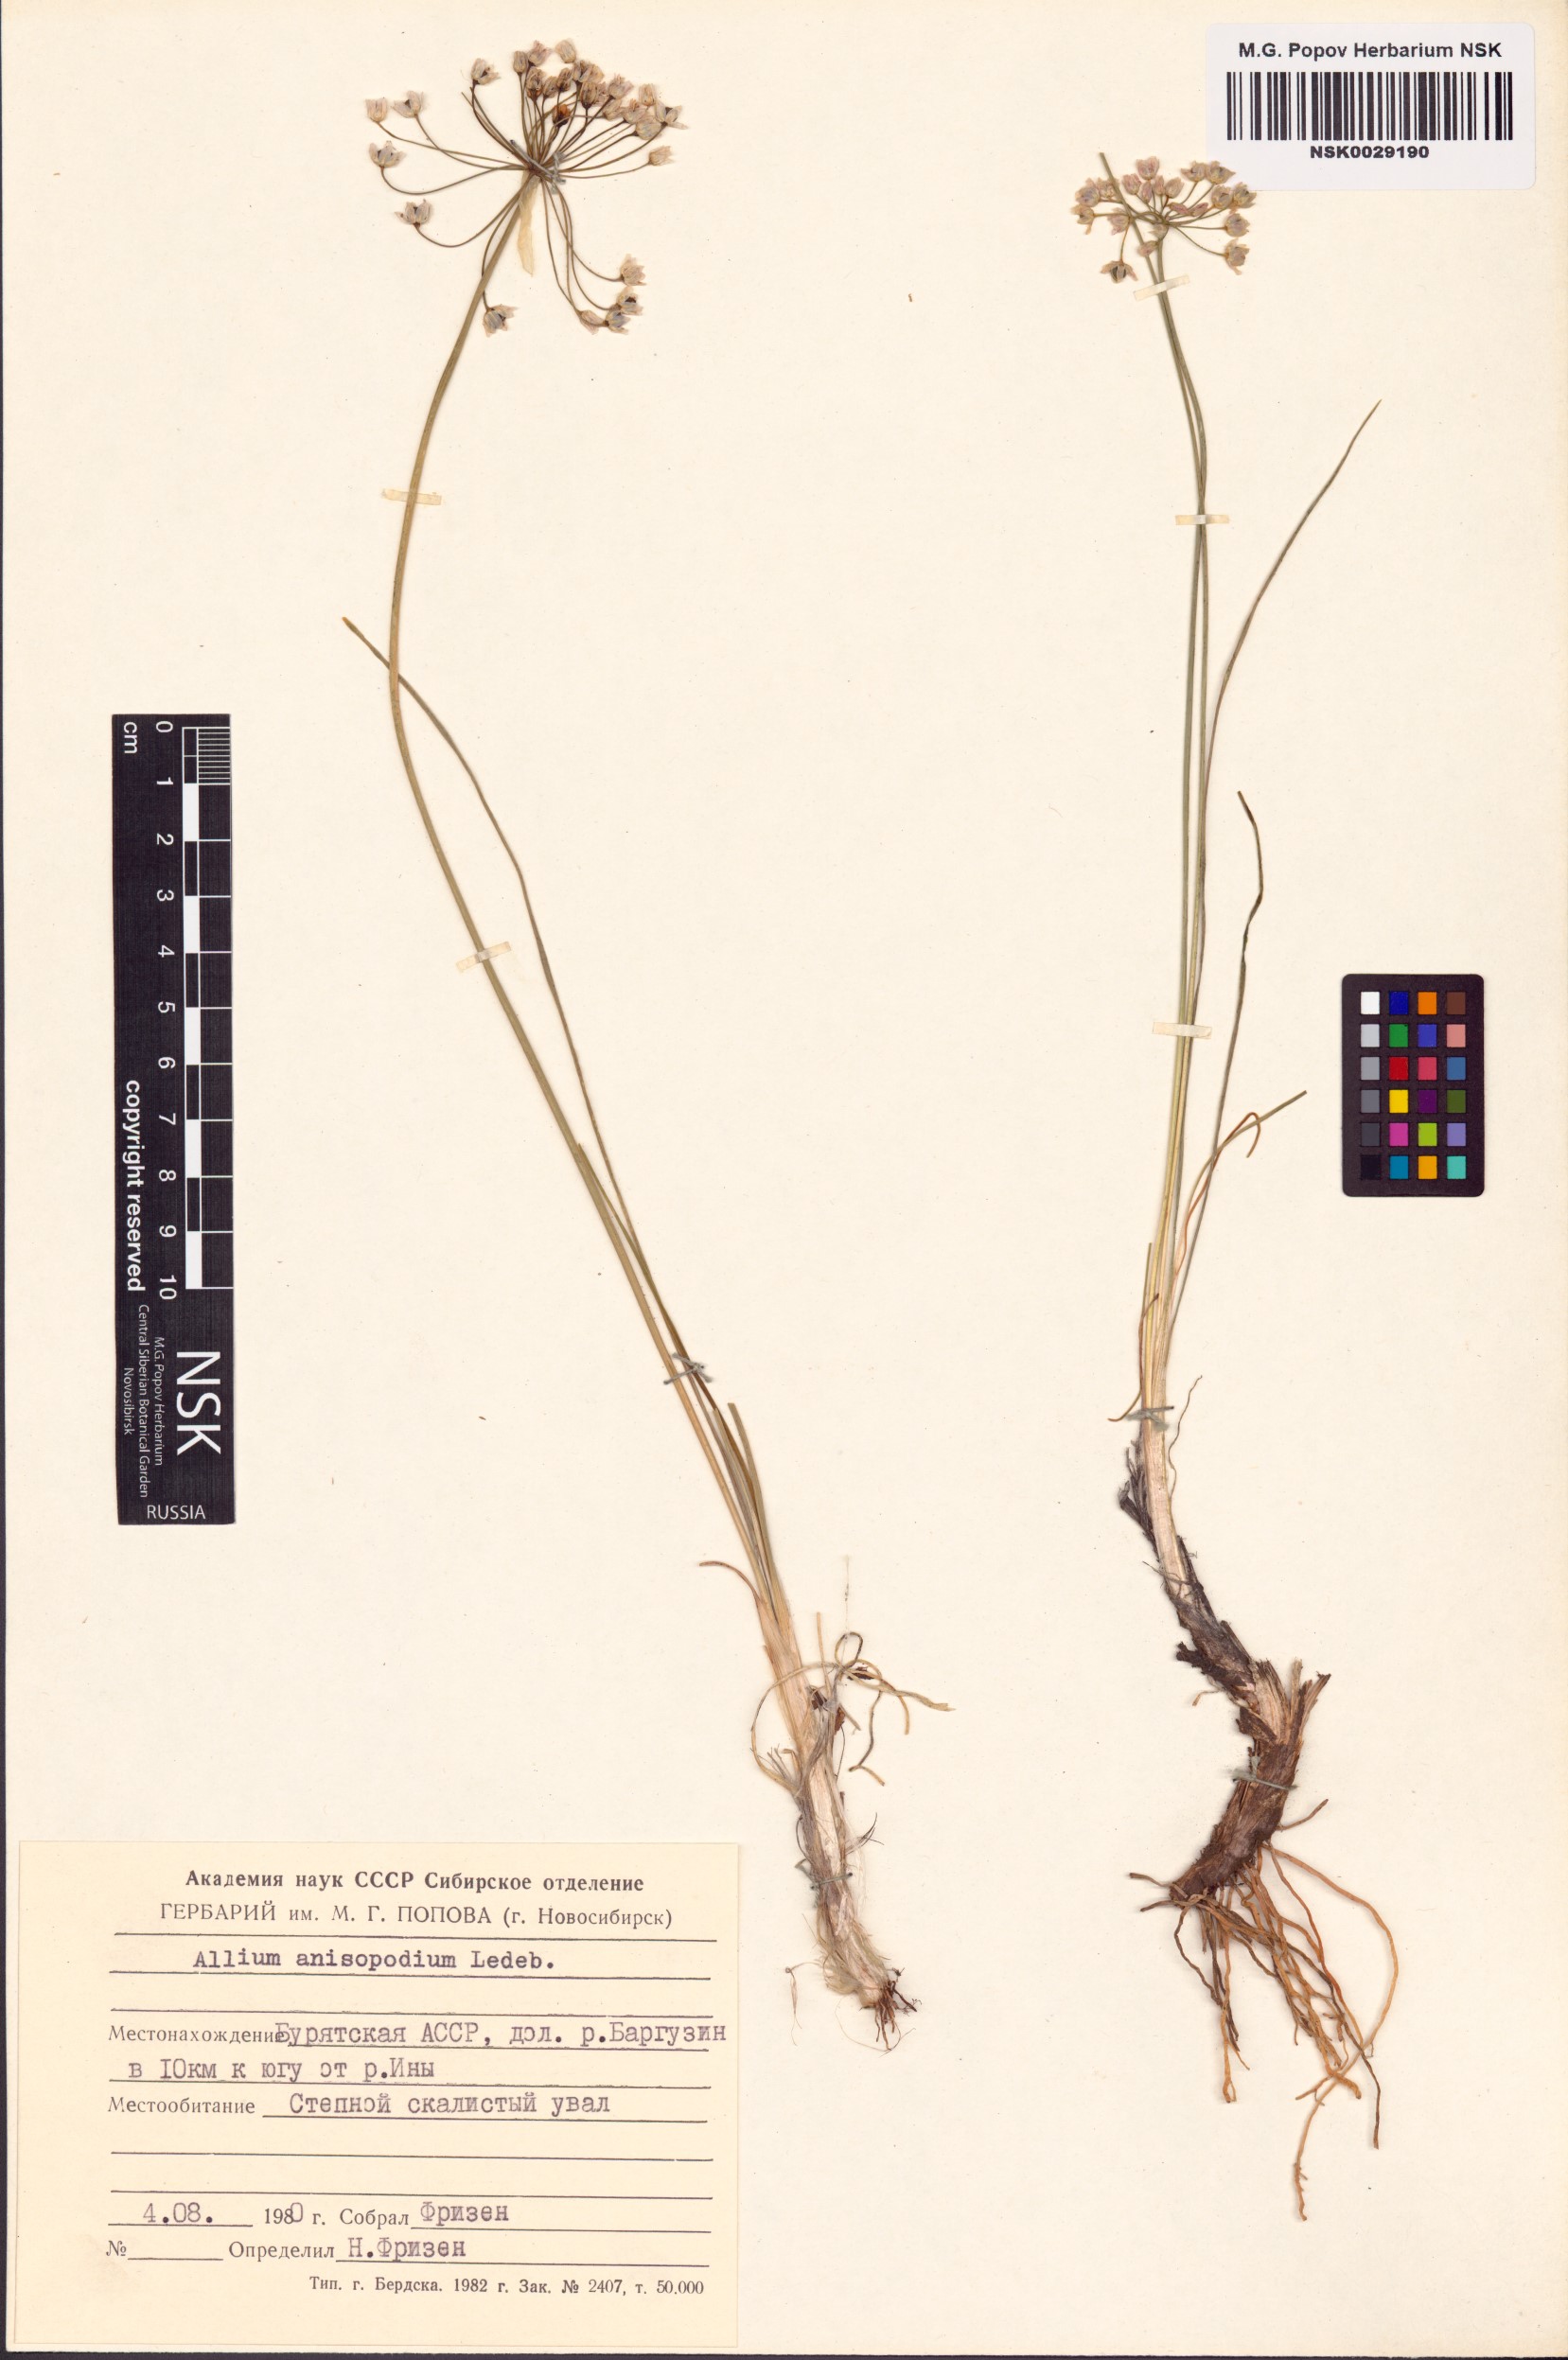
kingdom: Plantae
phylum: Tracheophyta
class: Liliopsida
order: Asparagales
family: Amaryllidaceae
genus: Allium
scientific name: Allium anisopodium
